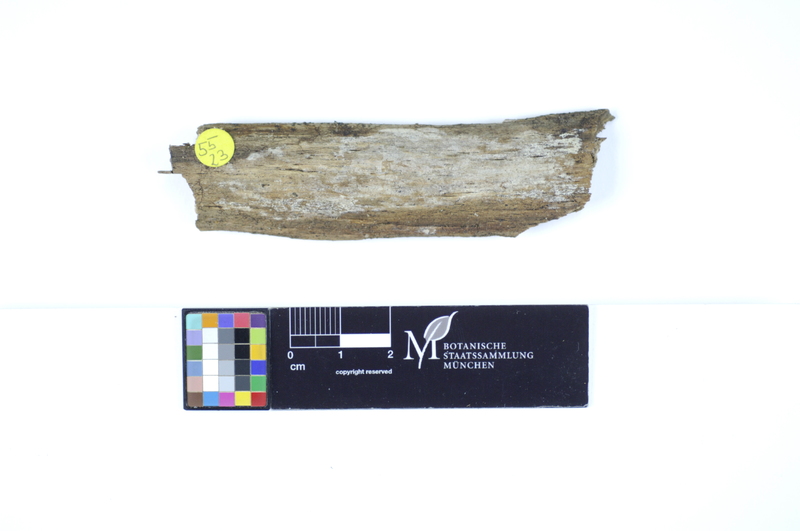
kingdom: Fungi
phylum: Basidiomycota
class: Agaricomycetes
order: Polyporales
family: Hyphodermataceae
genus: Hyphoderma
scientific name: Hyphoderma roseocremeum
